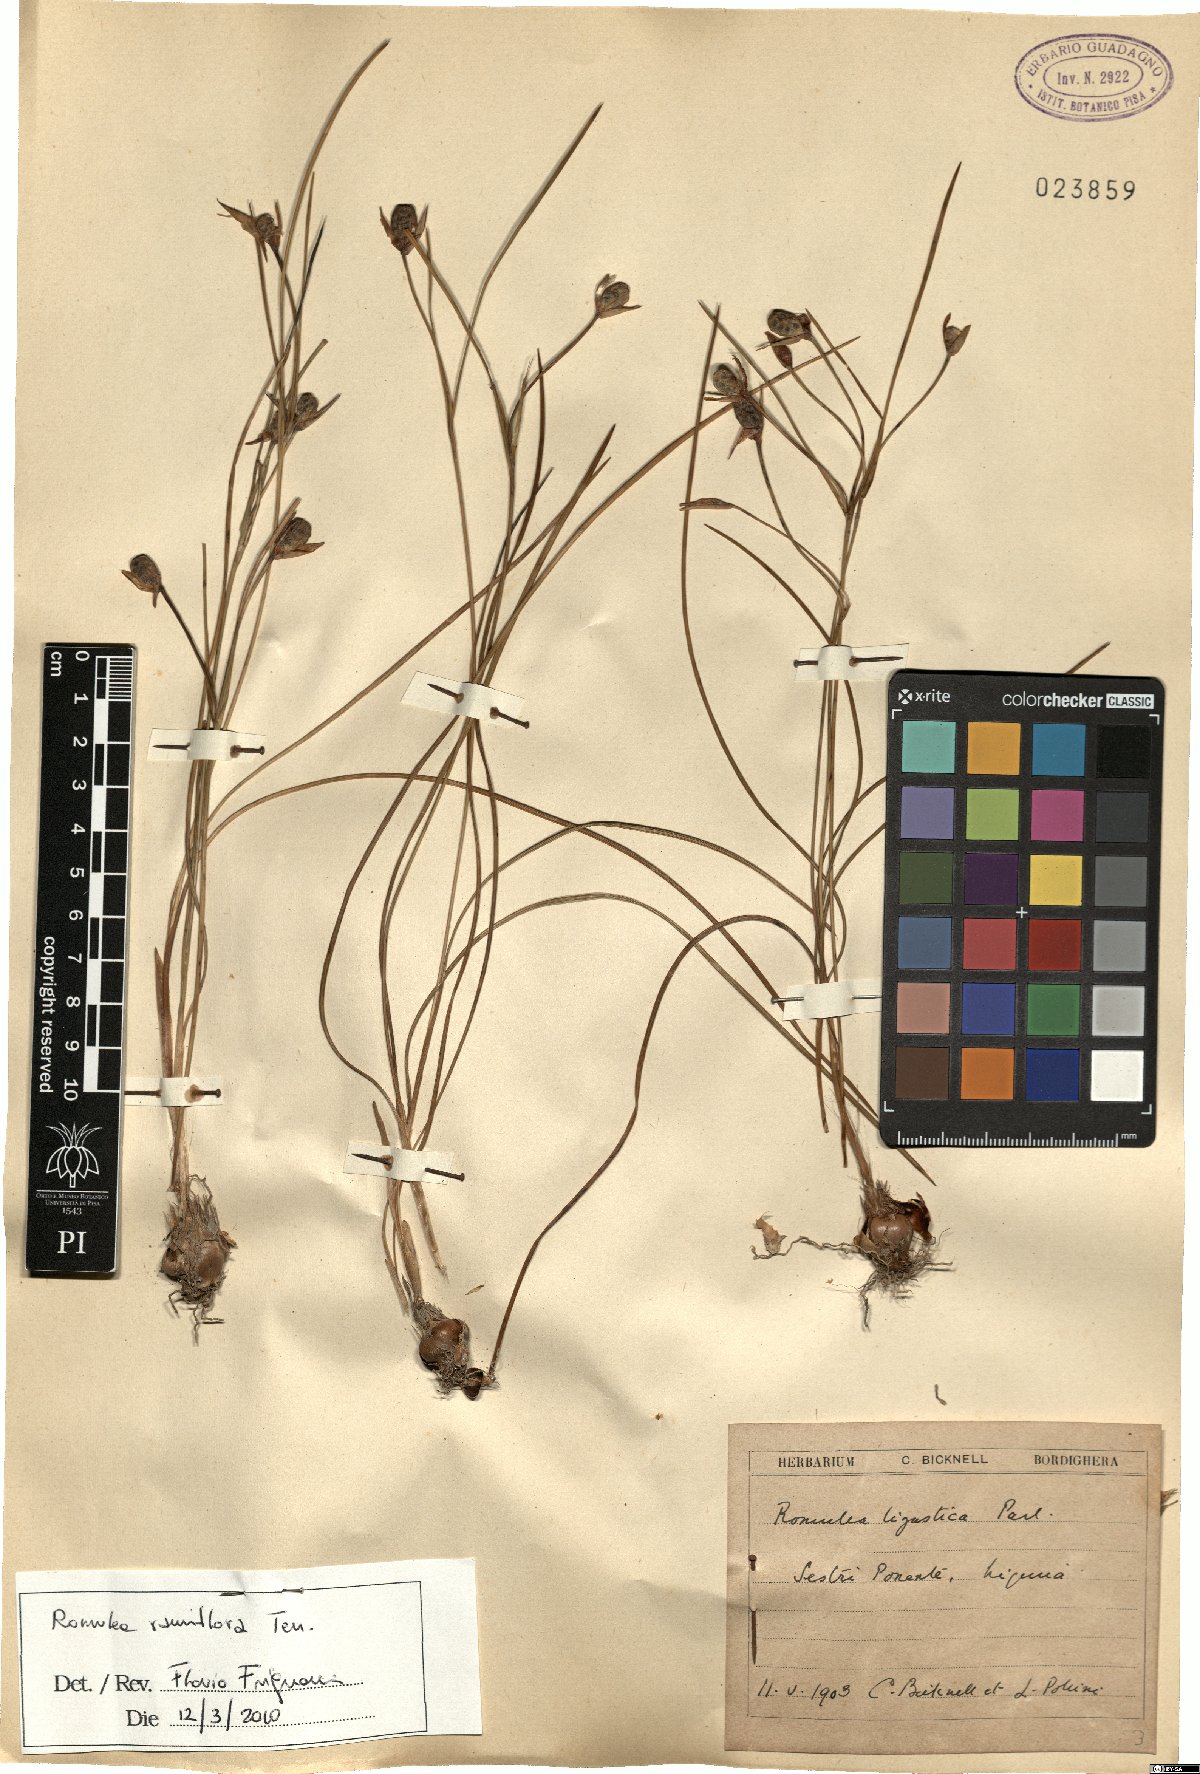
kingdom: Plantae
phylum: Tracheophyta
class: Liliopsida
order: Asparagales
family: Iridaceae
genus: Romulea
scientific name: Romulea ramiflora
